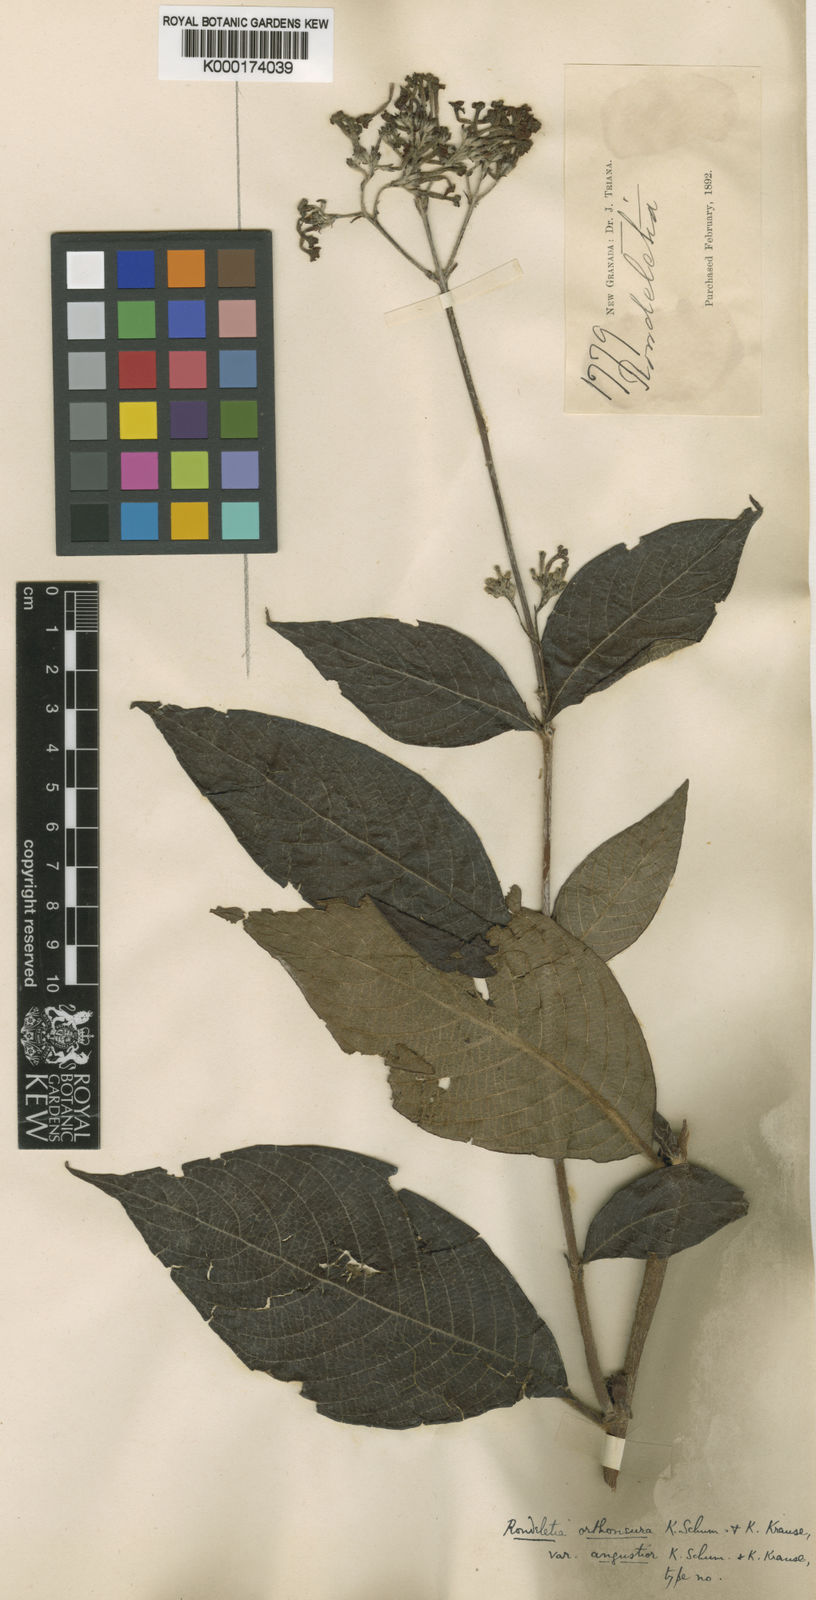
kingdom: Plantae
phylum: Tracheophyta
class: Magnoliopsida
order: Gentianales
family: Rubiaceae
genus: Arachnothryx
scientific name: Arachnothryx reflexa
